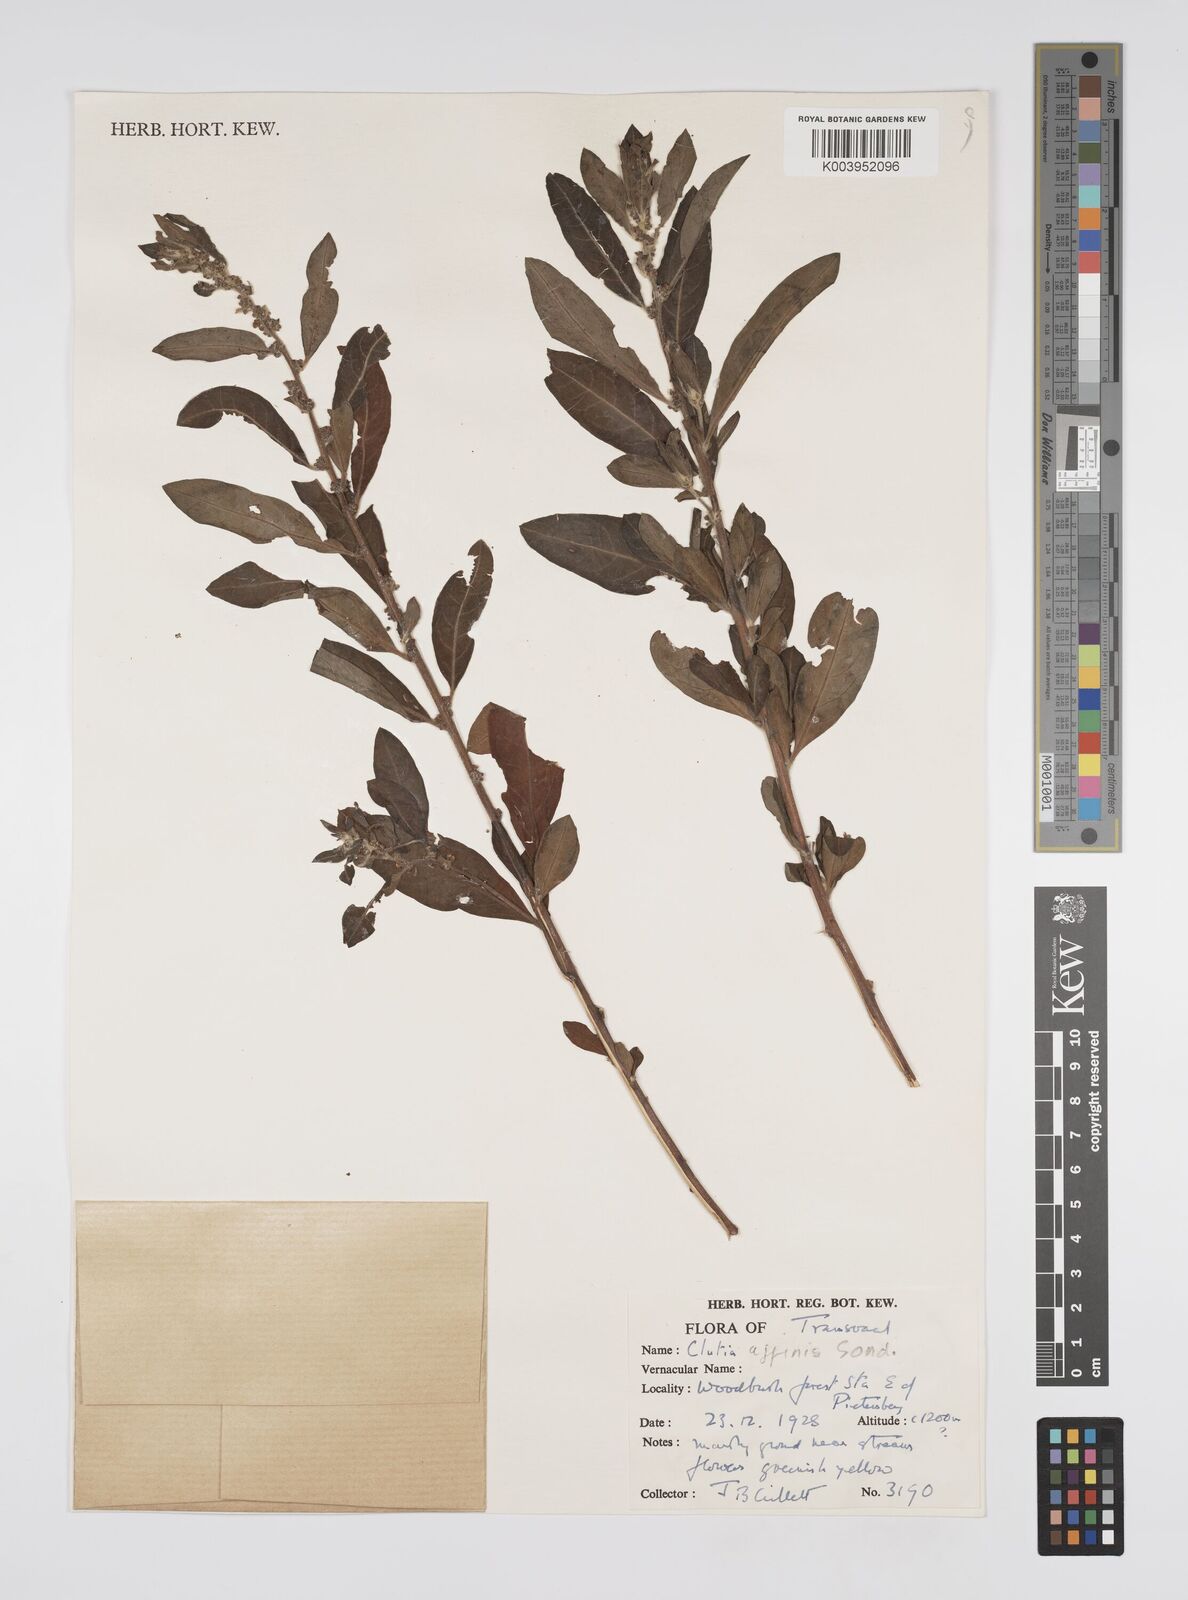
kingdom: Plantae
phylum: Tracheophyta
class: Magnoliopsida
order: Malpighiales
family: Peraceae
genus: Clutia
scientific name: Clutia affinis
